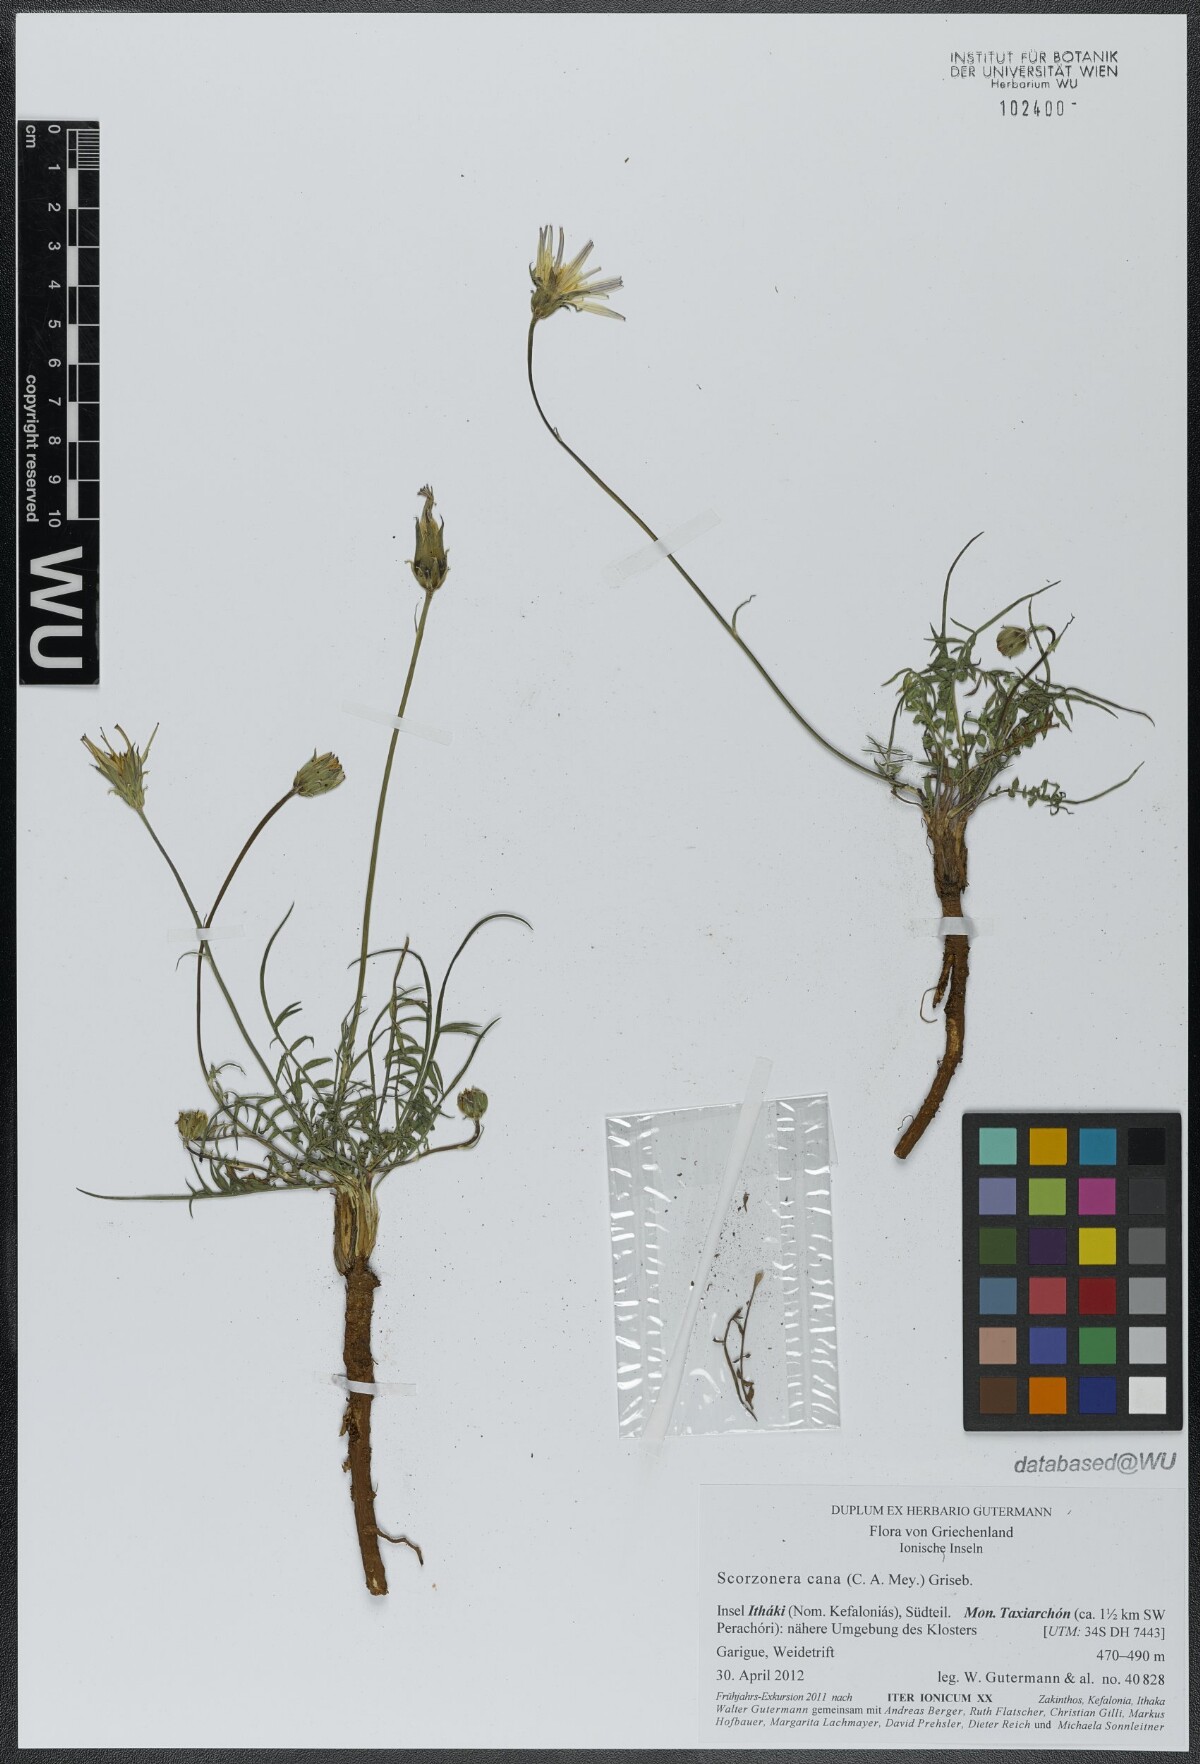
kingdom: Plantae
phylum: Tracheophyta
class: Magnoliopsida
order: Asterales
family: Asteraceae
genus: Scorzonera
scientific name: Scorzonera cana
